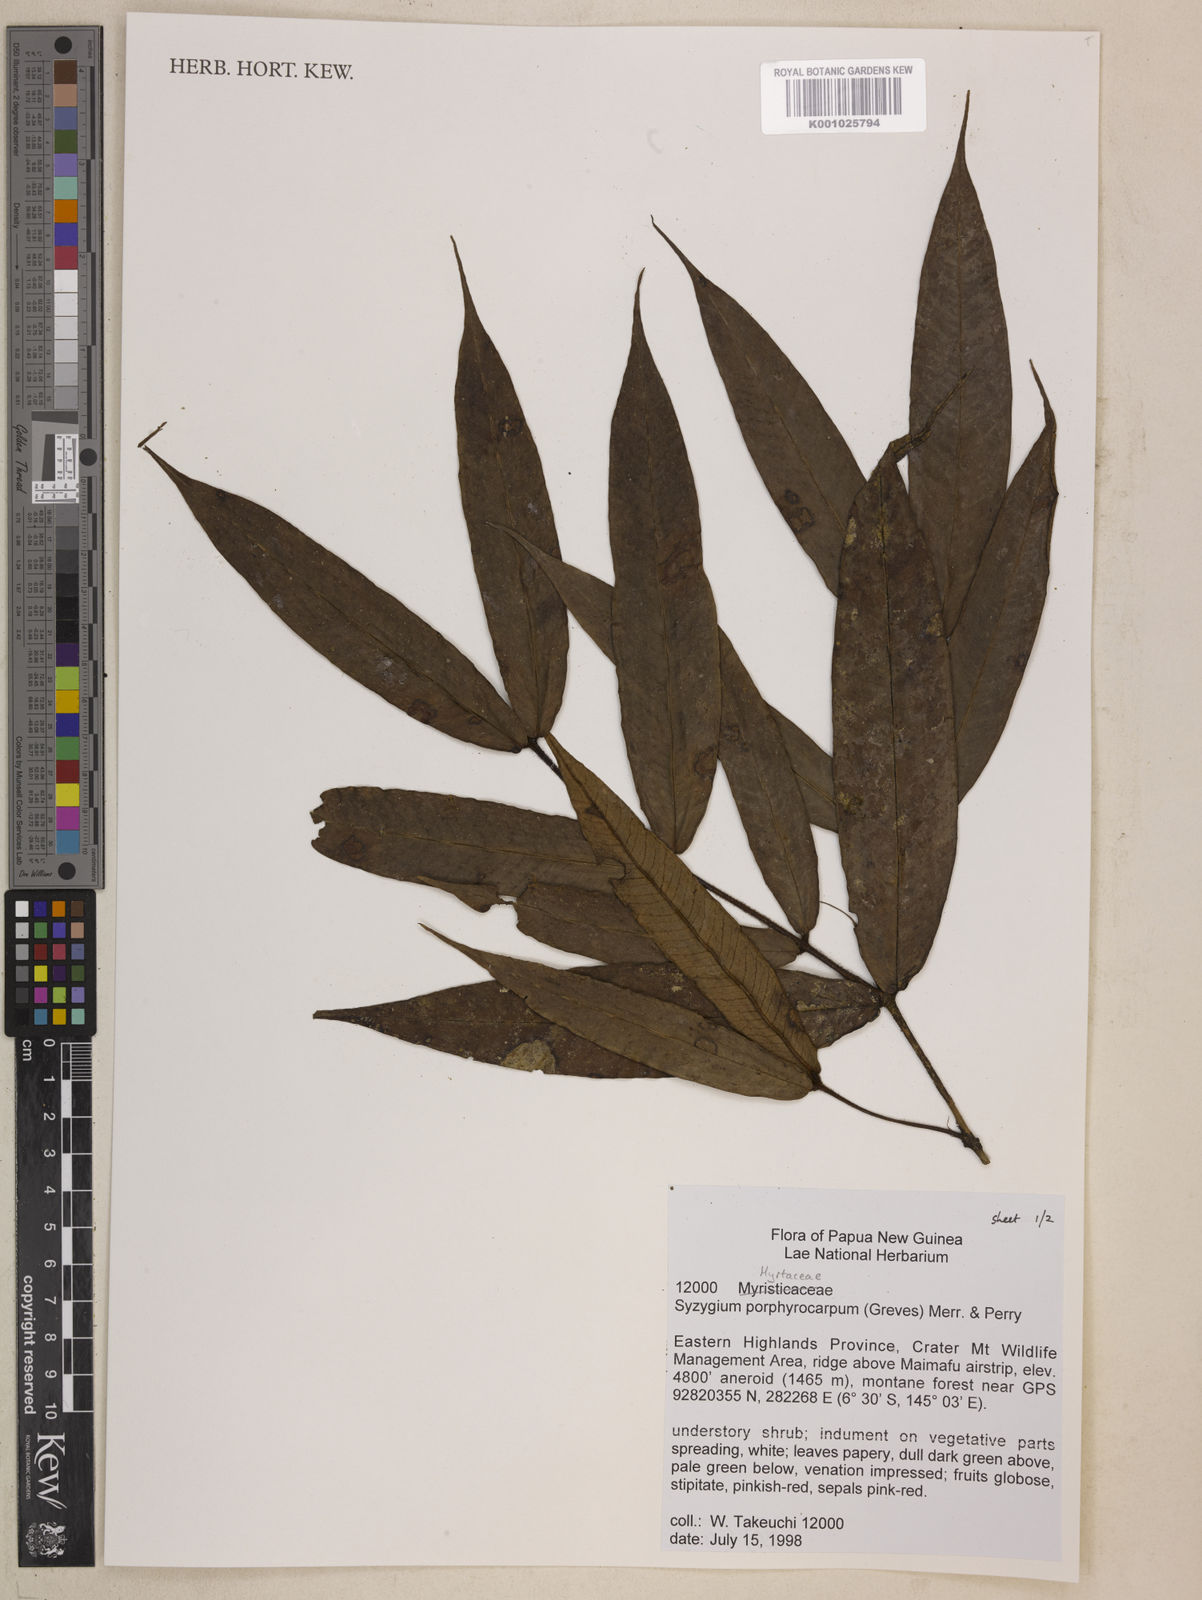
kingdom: Plantae
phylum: Tracheophyta
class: Magnoliopsida
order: Myrtales
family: Myrtaceae
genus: Syzygium
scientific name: Syzygium porphyrocarpum
